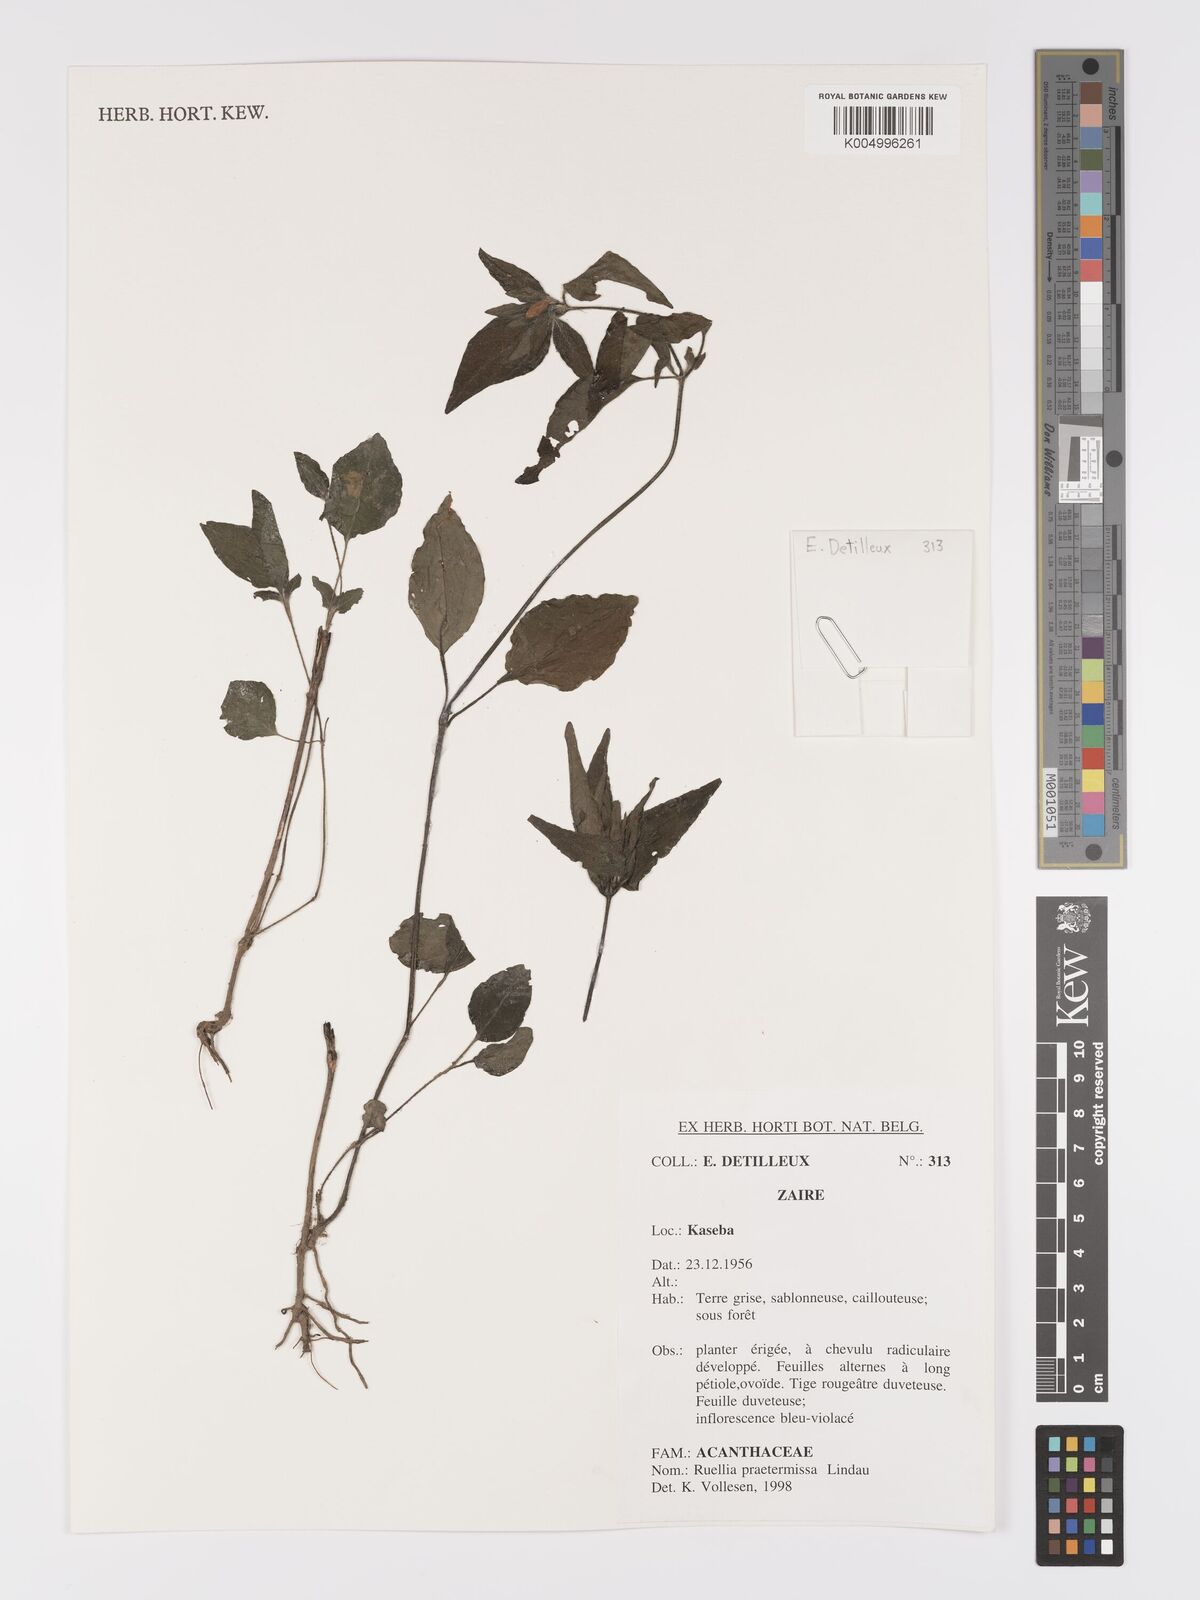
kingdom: Plantae
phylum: Tracheophyta
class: Magnoliopsida
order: Lamiales
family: Acanthaceae
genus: Ruellia
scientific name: Ruellia praetermissa
